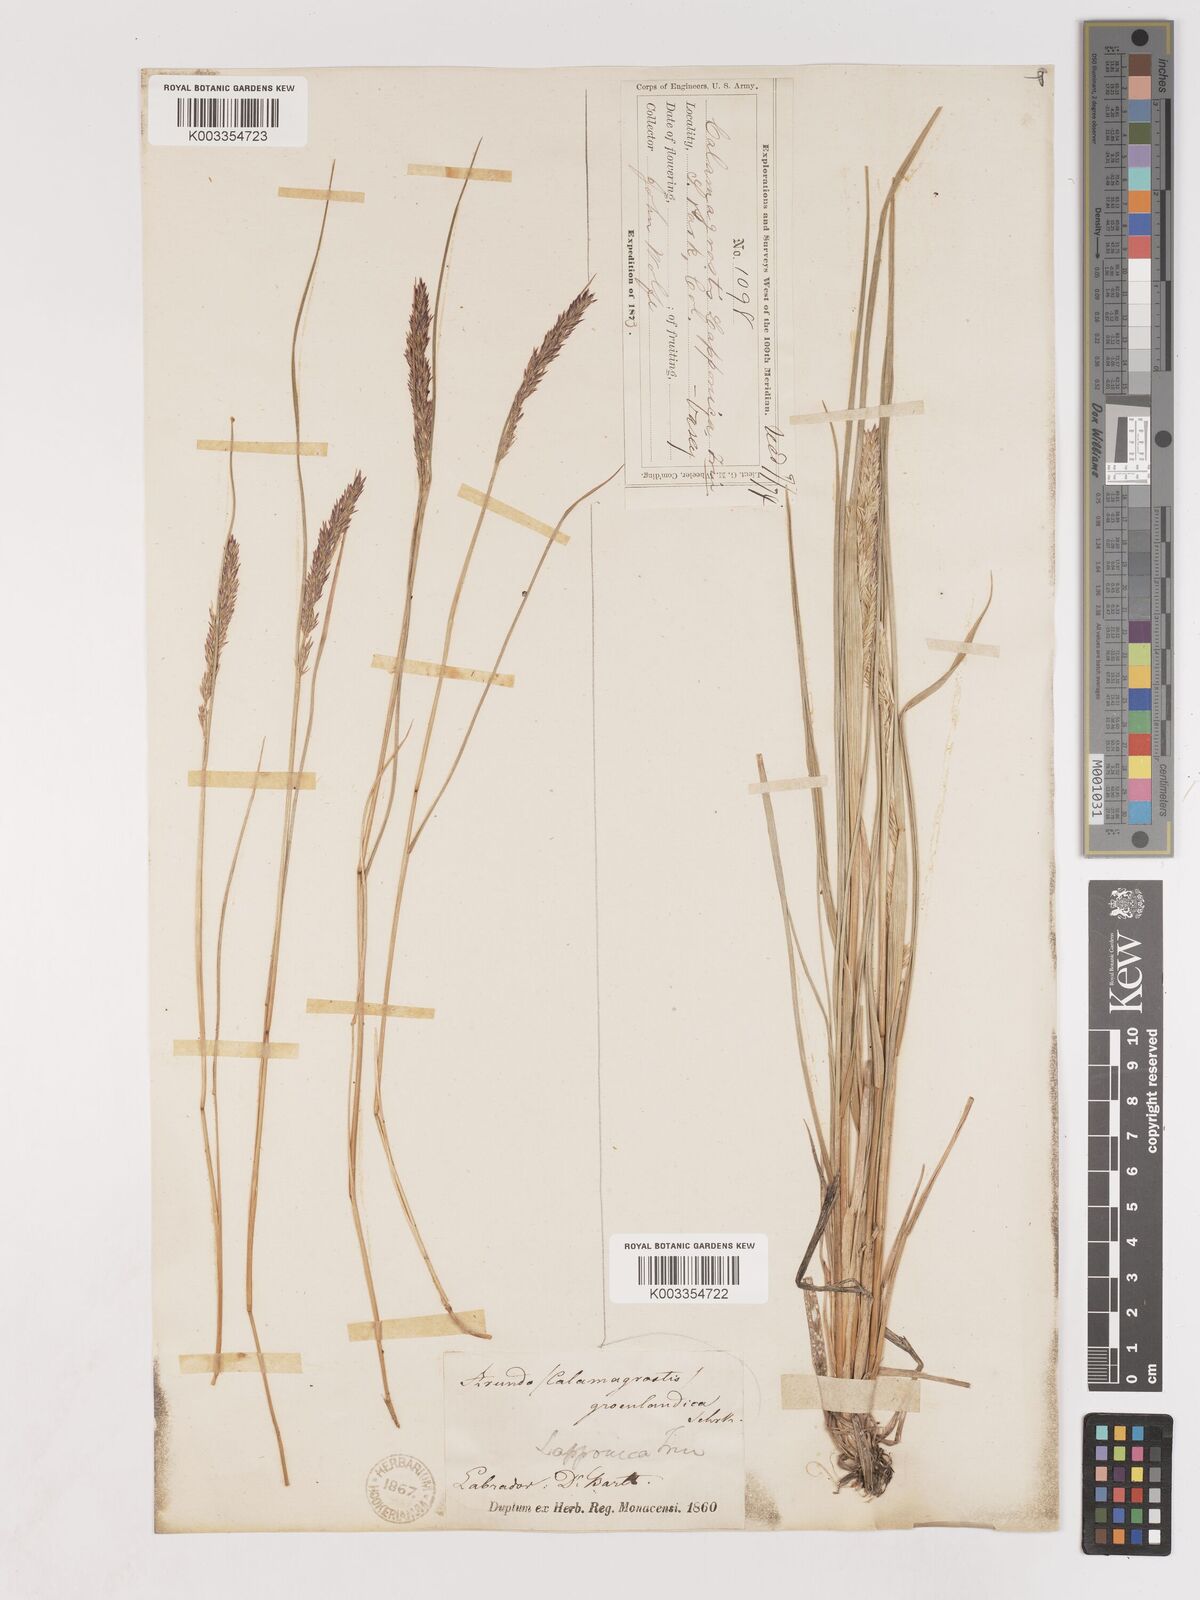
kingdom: Plantae
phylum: Tracheophyta
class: Liliopsida
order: Poales
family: Poaceae
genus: Cinnagrostis
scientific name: Cinnagrostis recta
